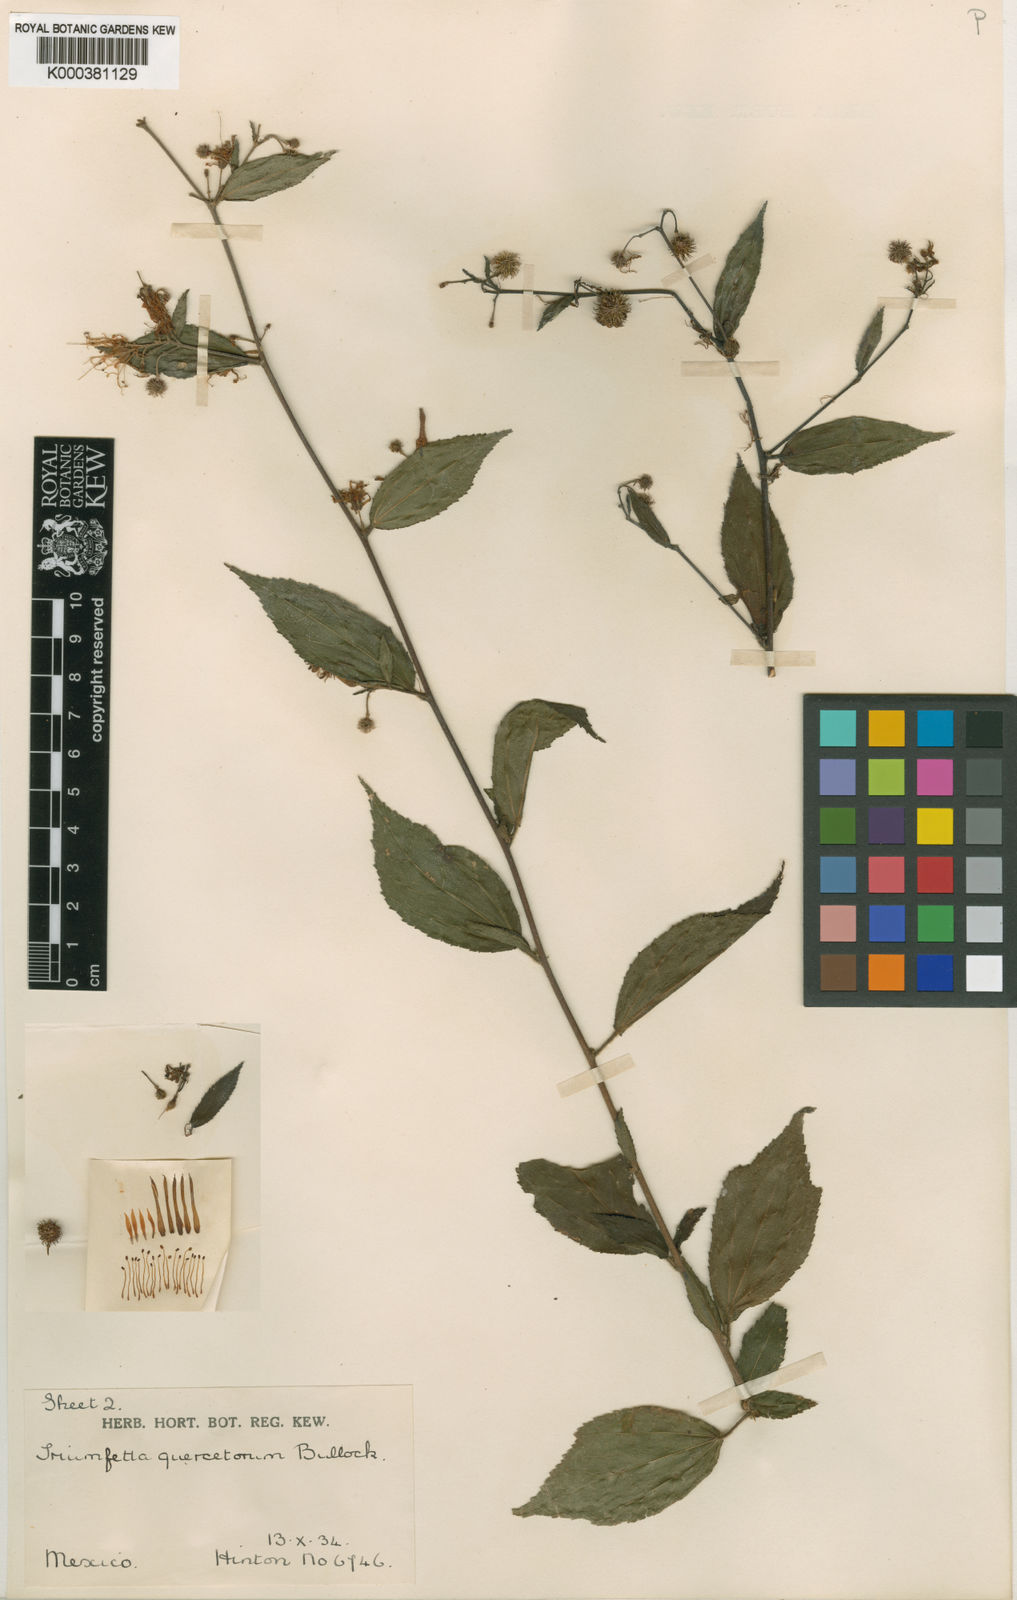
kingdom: Plantae
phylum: Tracheophyta
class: Magnoliopsida
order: Malvales
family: Malvaceae
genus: Triumfetta
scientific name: Triumfetta goldmanii
